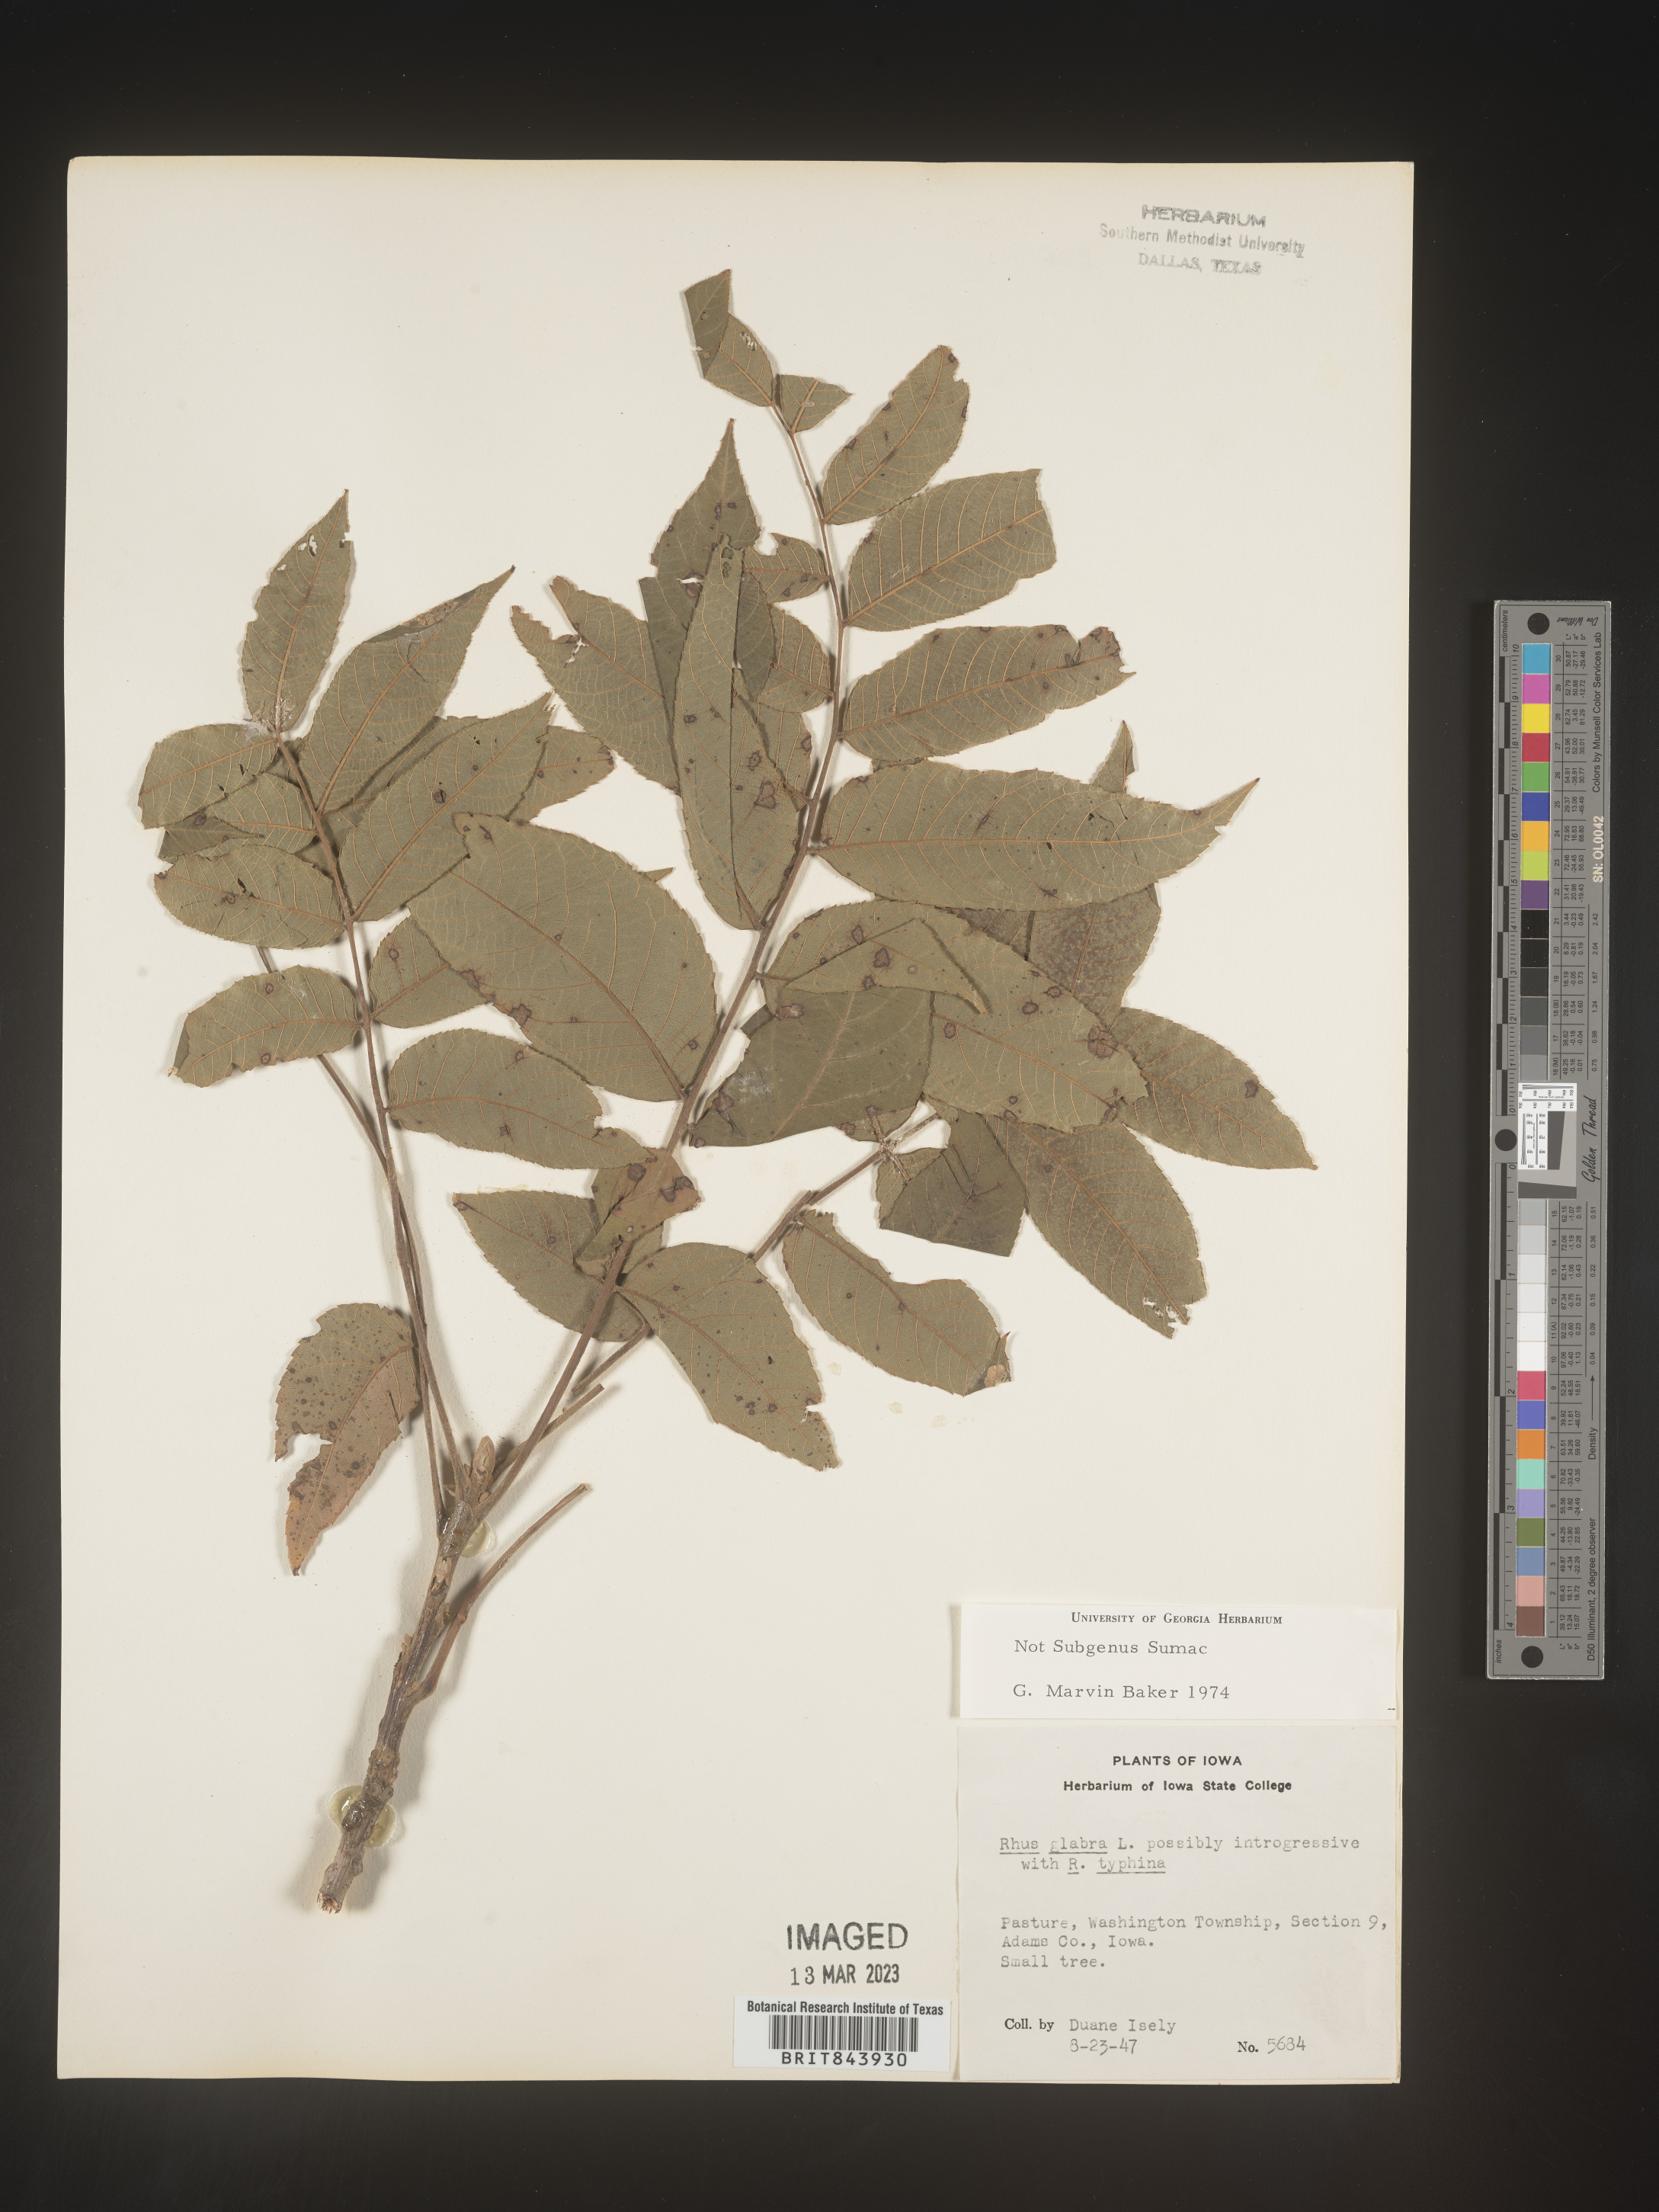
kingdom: Plantae
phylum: Tracheophyta
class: Magnoliopsida
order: Fagales
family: Juglandaceae
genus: Carya
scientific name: Carya
